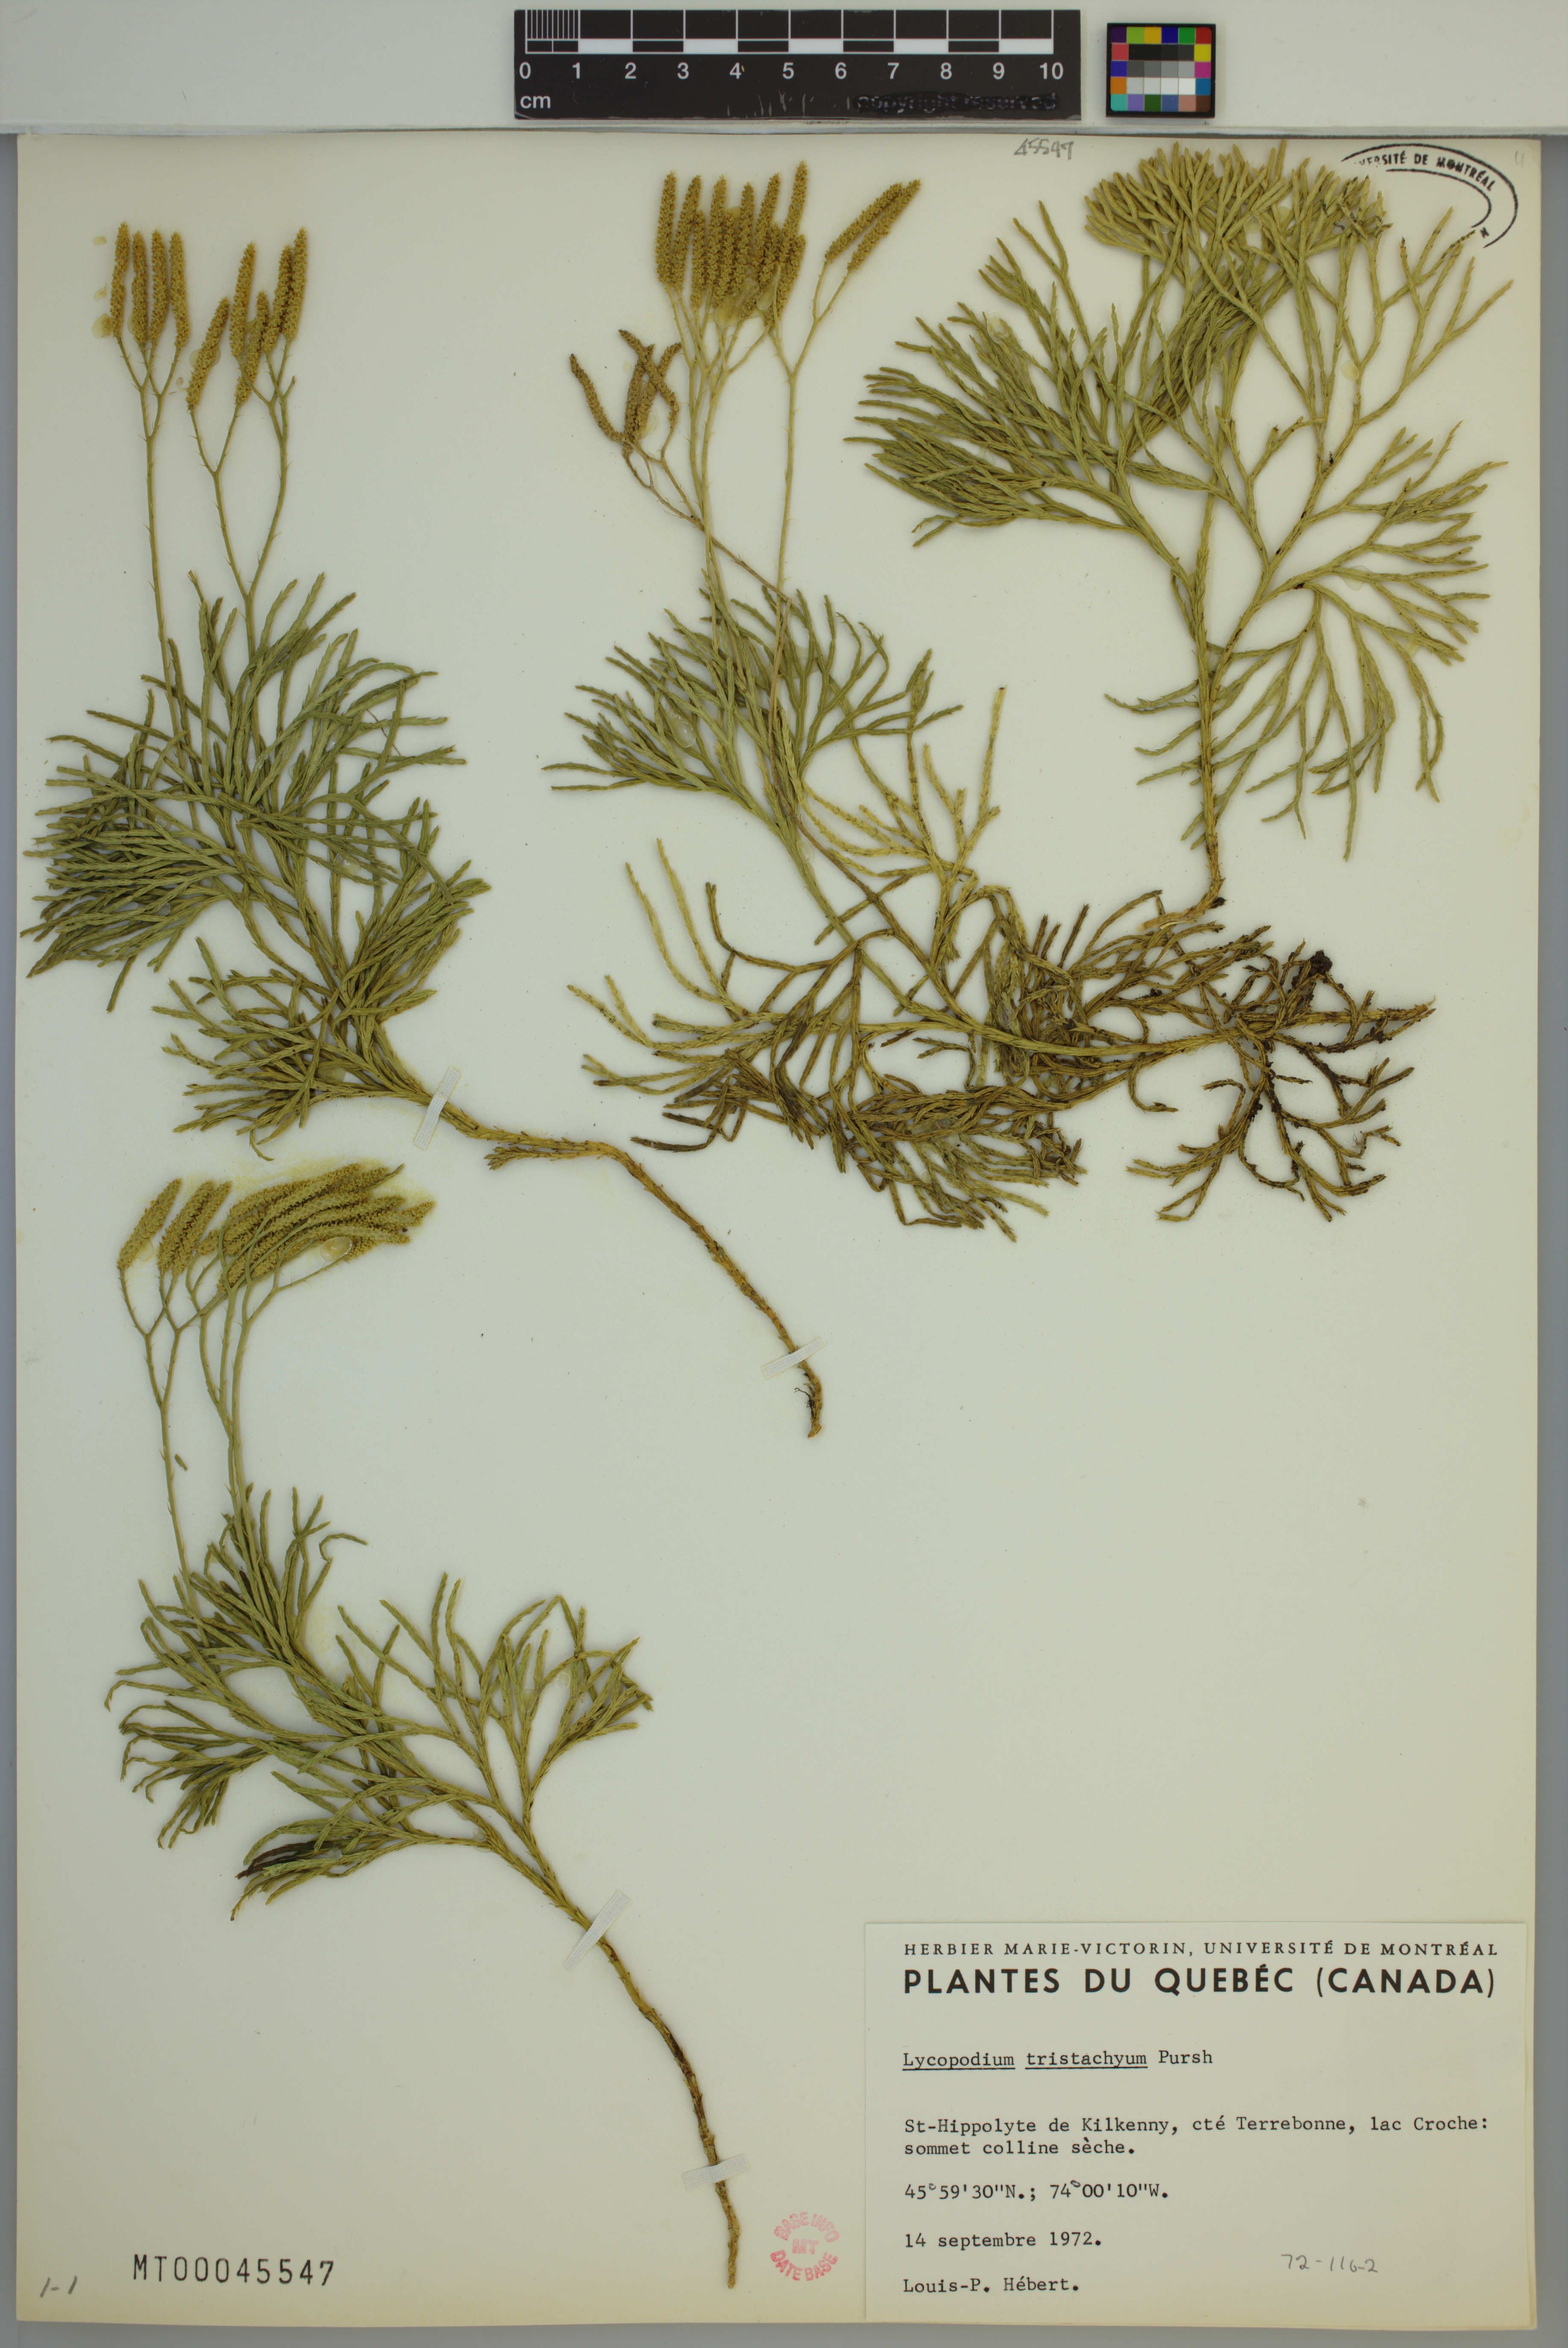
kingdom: Plantae
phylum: Tracheophyta
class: Lycopodiopsida
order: Lycopodiales
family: Lycopodiaceae
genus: Diphasiastrum
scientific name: Diphasiastrum tristachyum
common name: Blue ground-cedar
